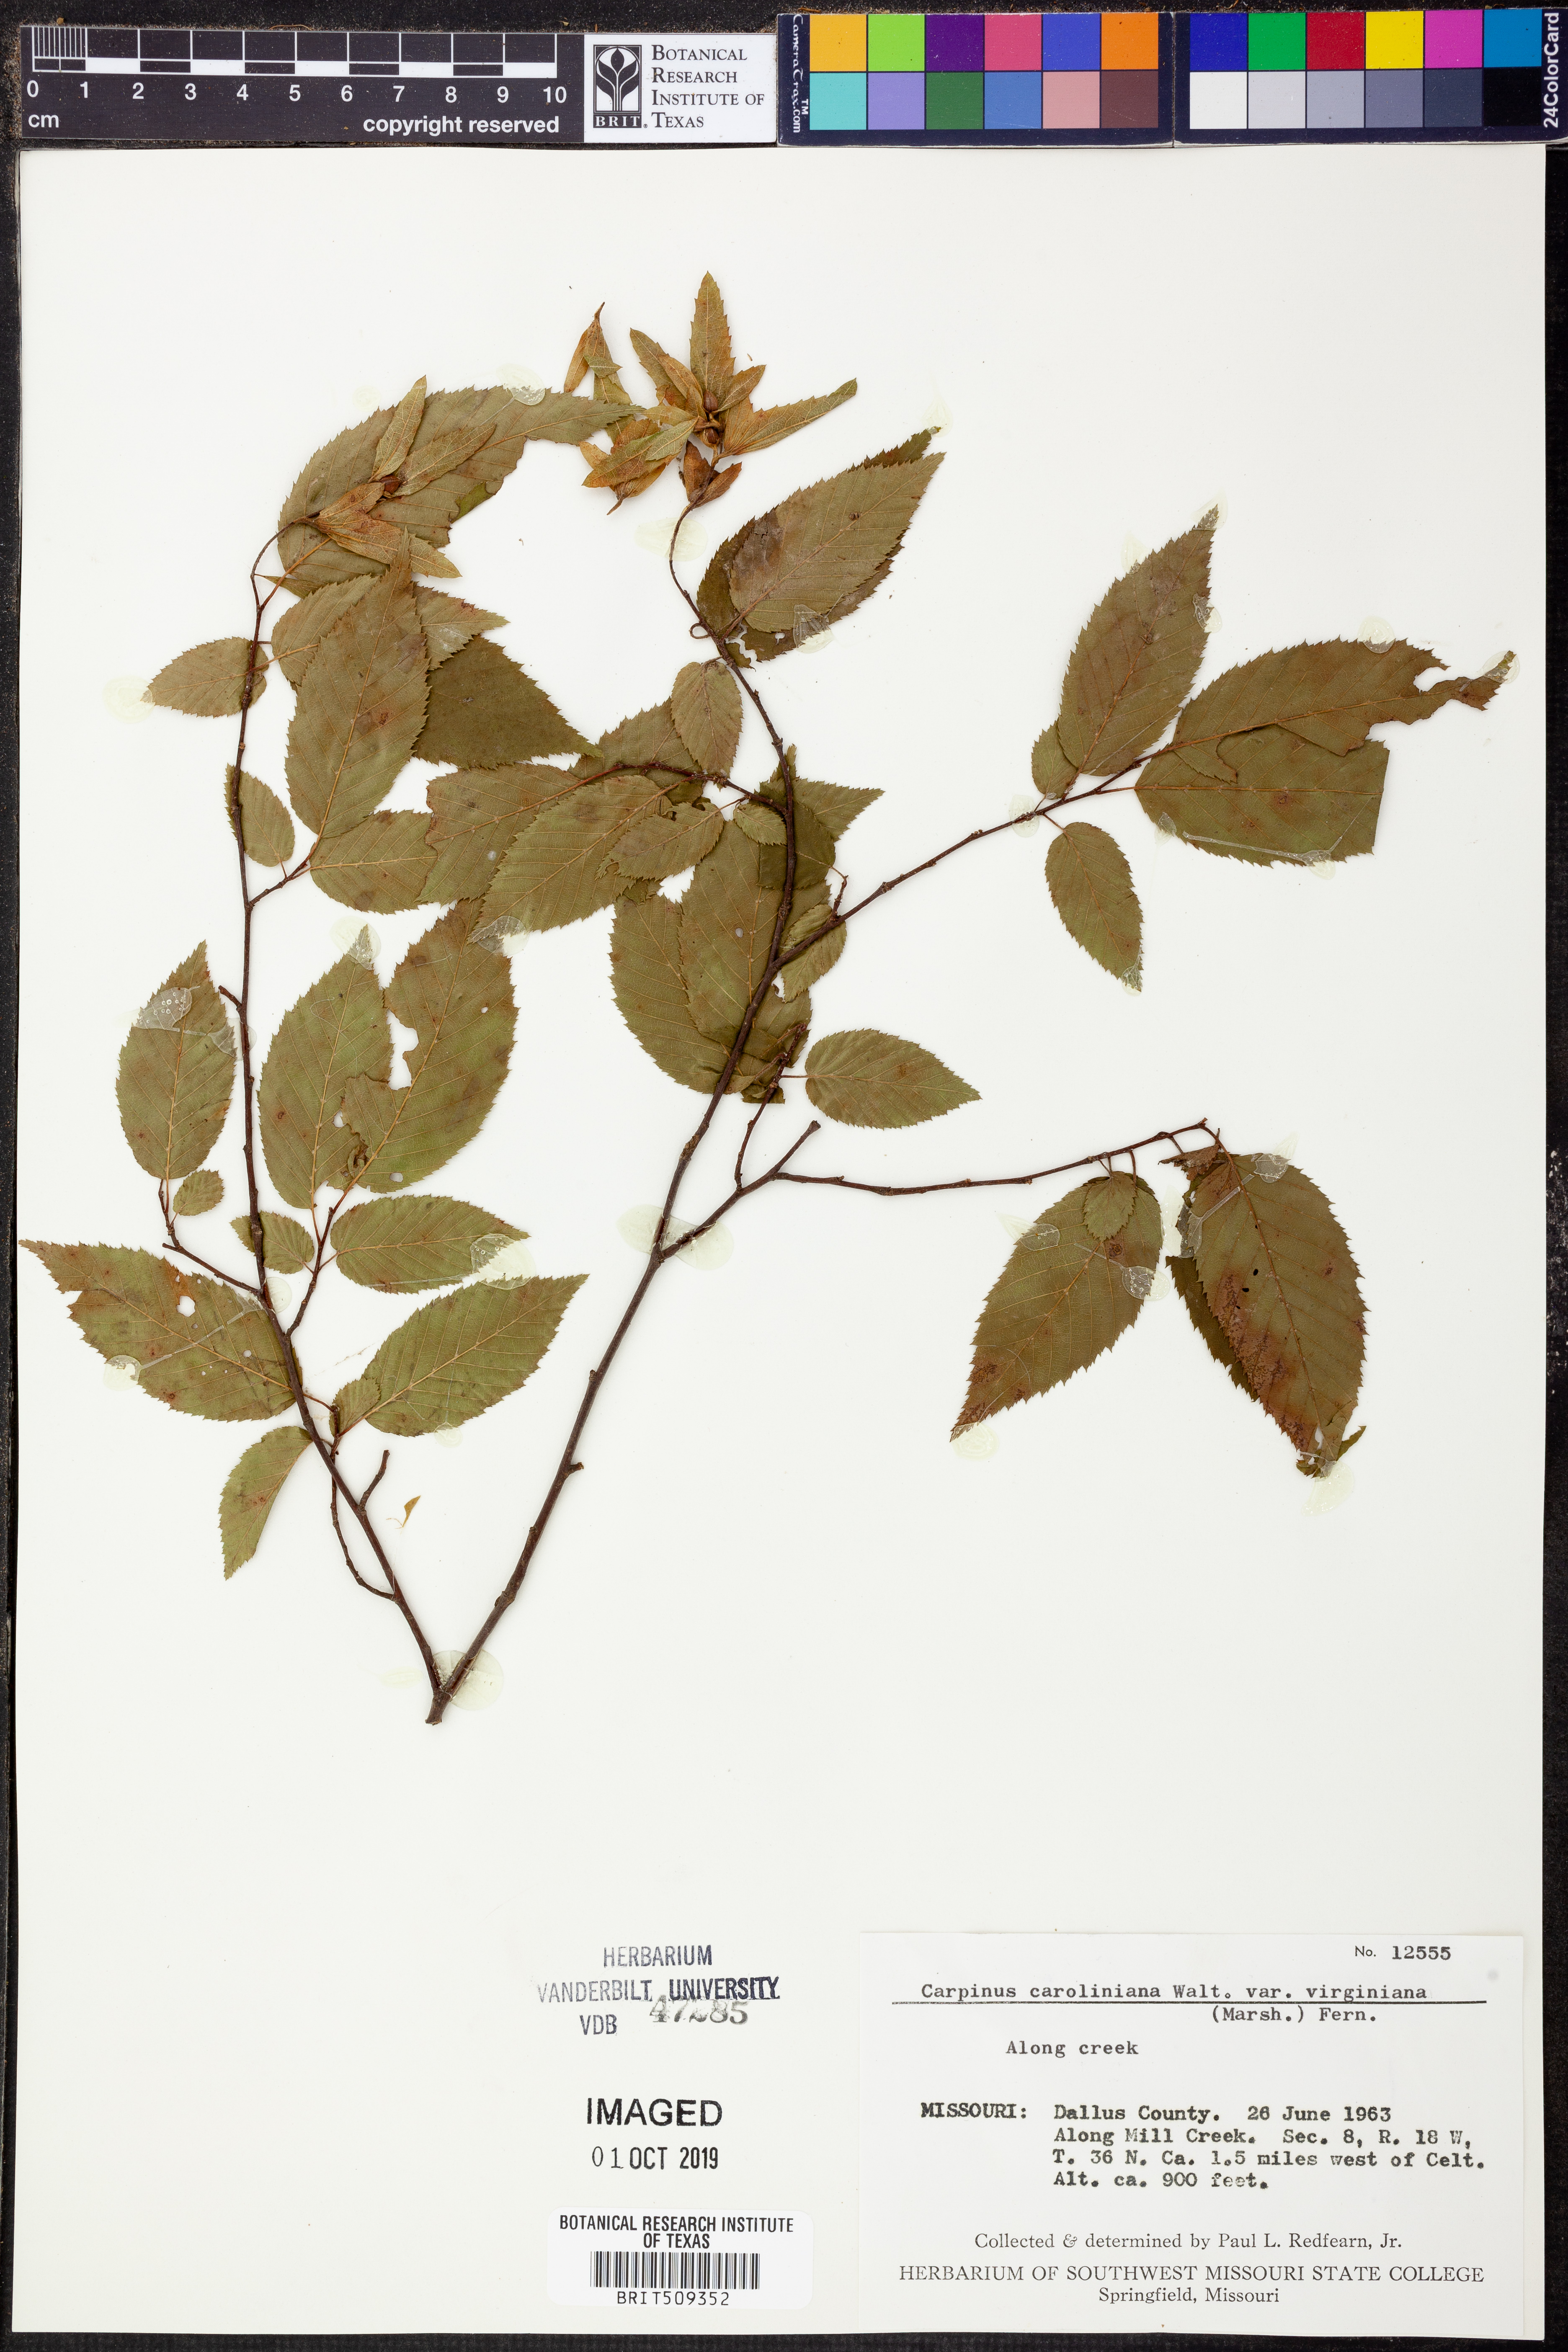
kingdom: Plantae
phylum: Tracheophyta
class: Magnoliopsida
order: Fagales
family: Betulaceae
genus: Carpinus
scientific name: Carpinus caroliniana
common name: American hornbeam
